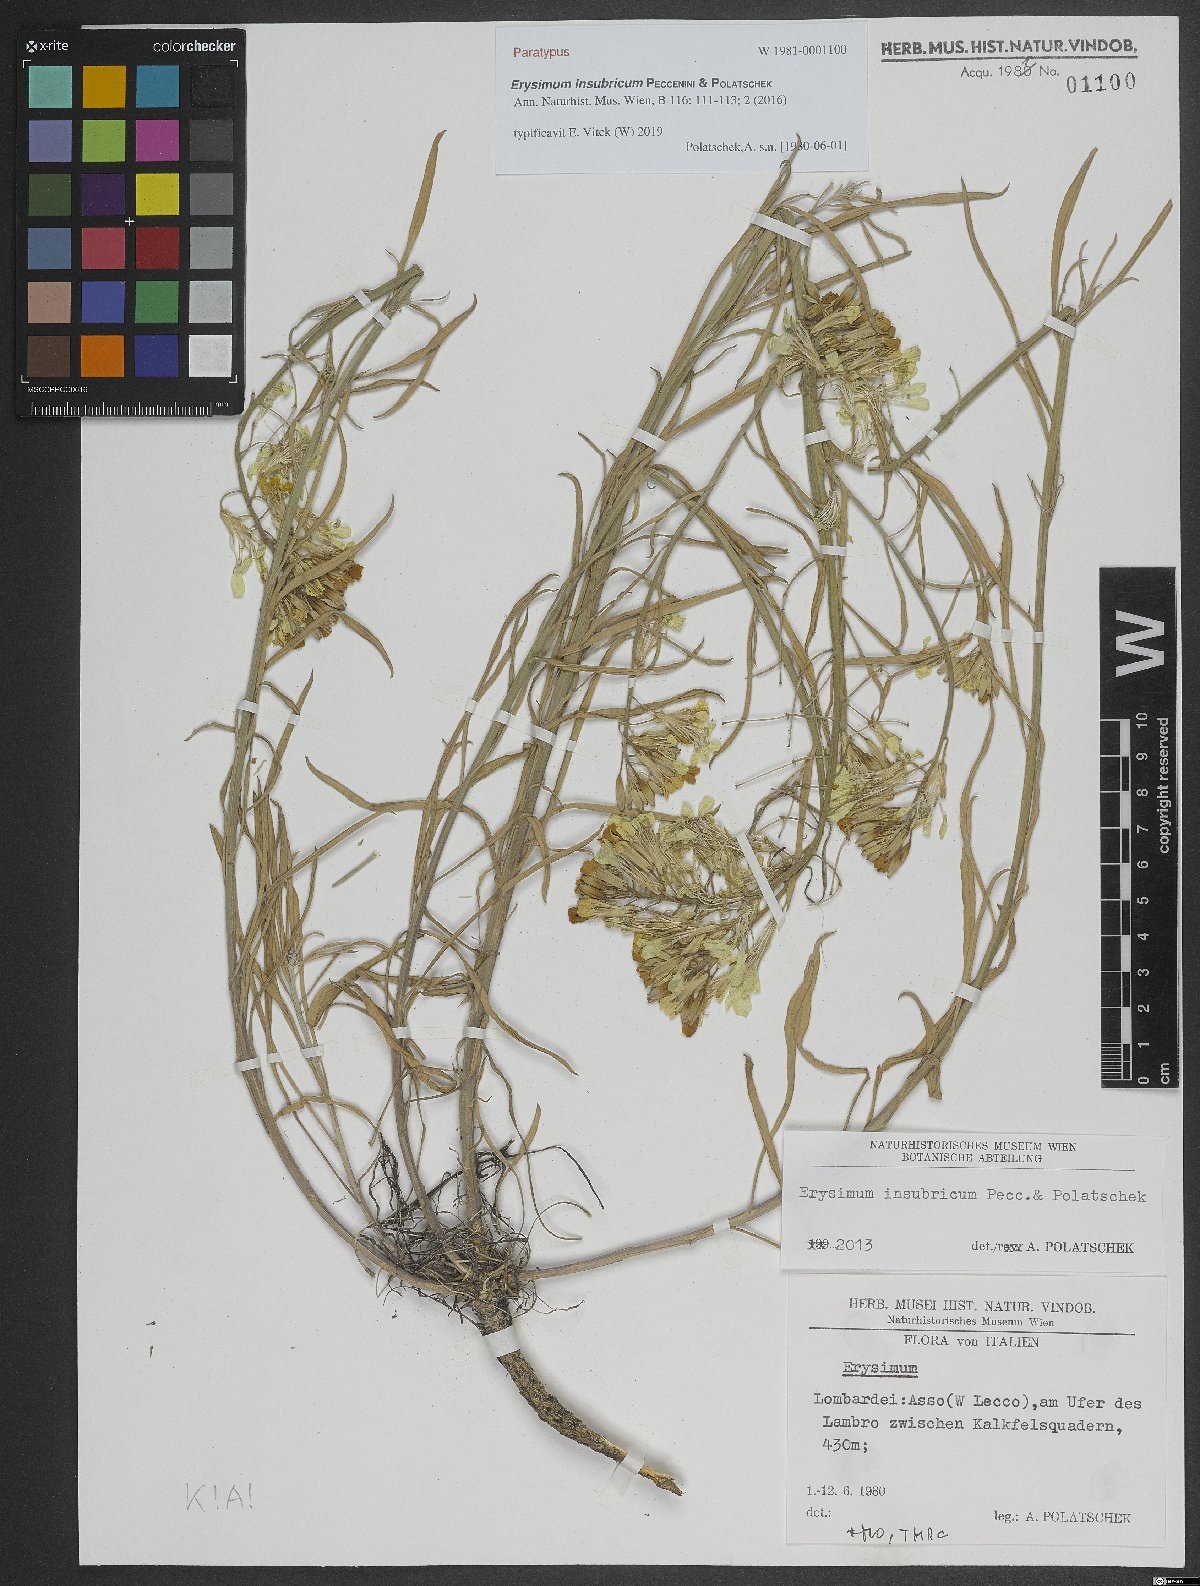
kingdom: Plantae
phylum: Tracheophyta
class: Magnoliopsida
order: Brassicales
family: Brassicaceae
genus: Erysimum
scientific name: Erysimum insubricum
